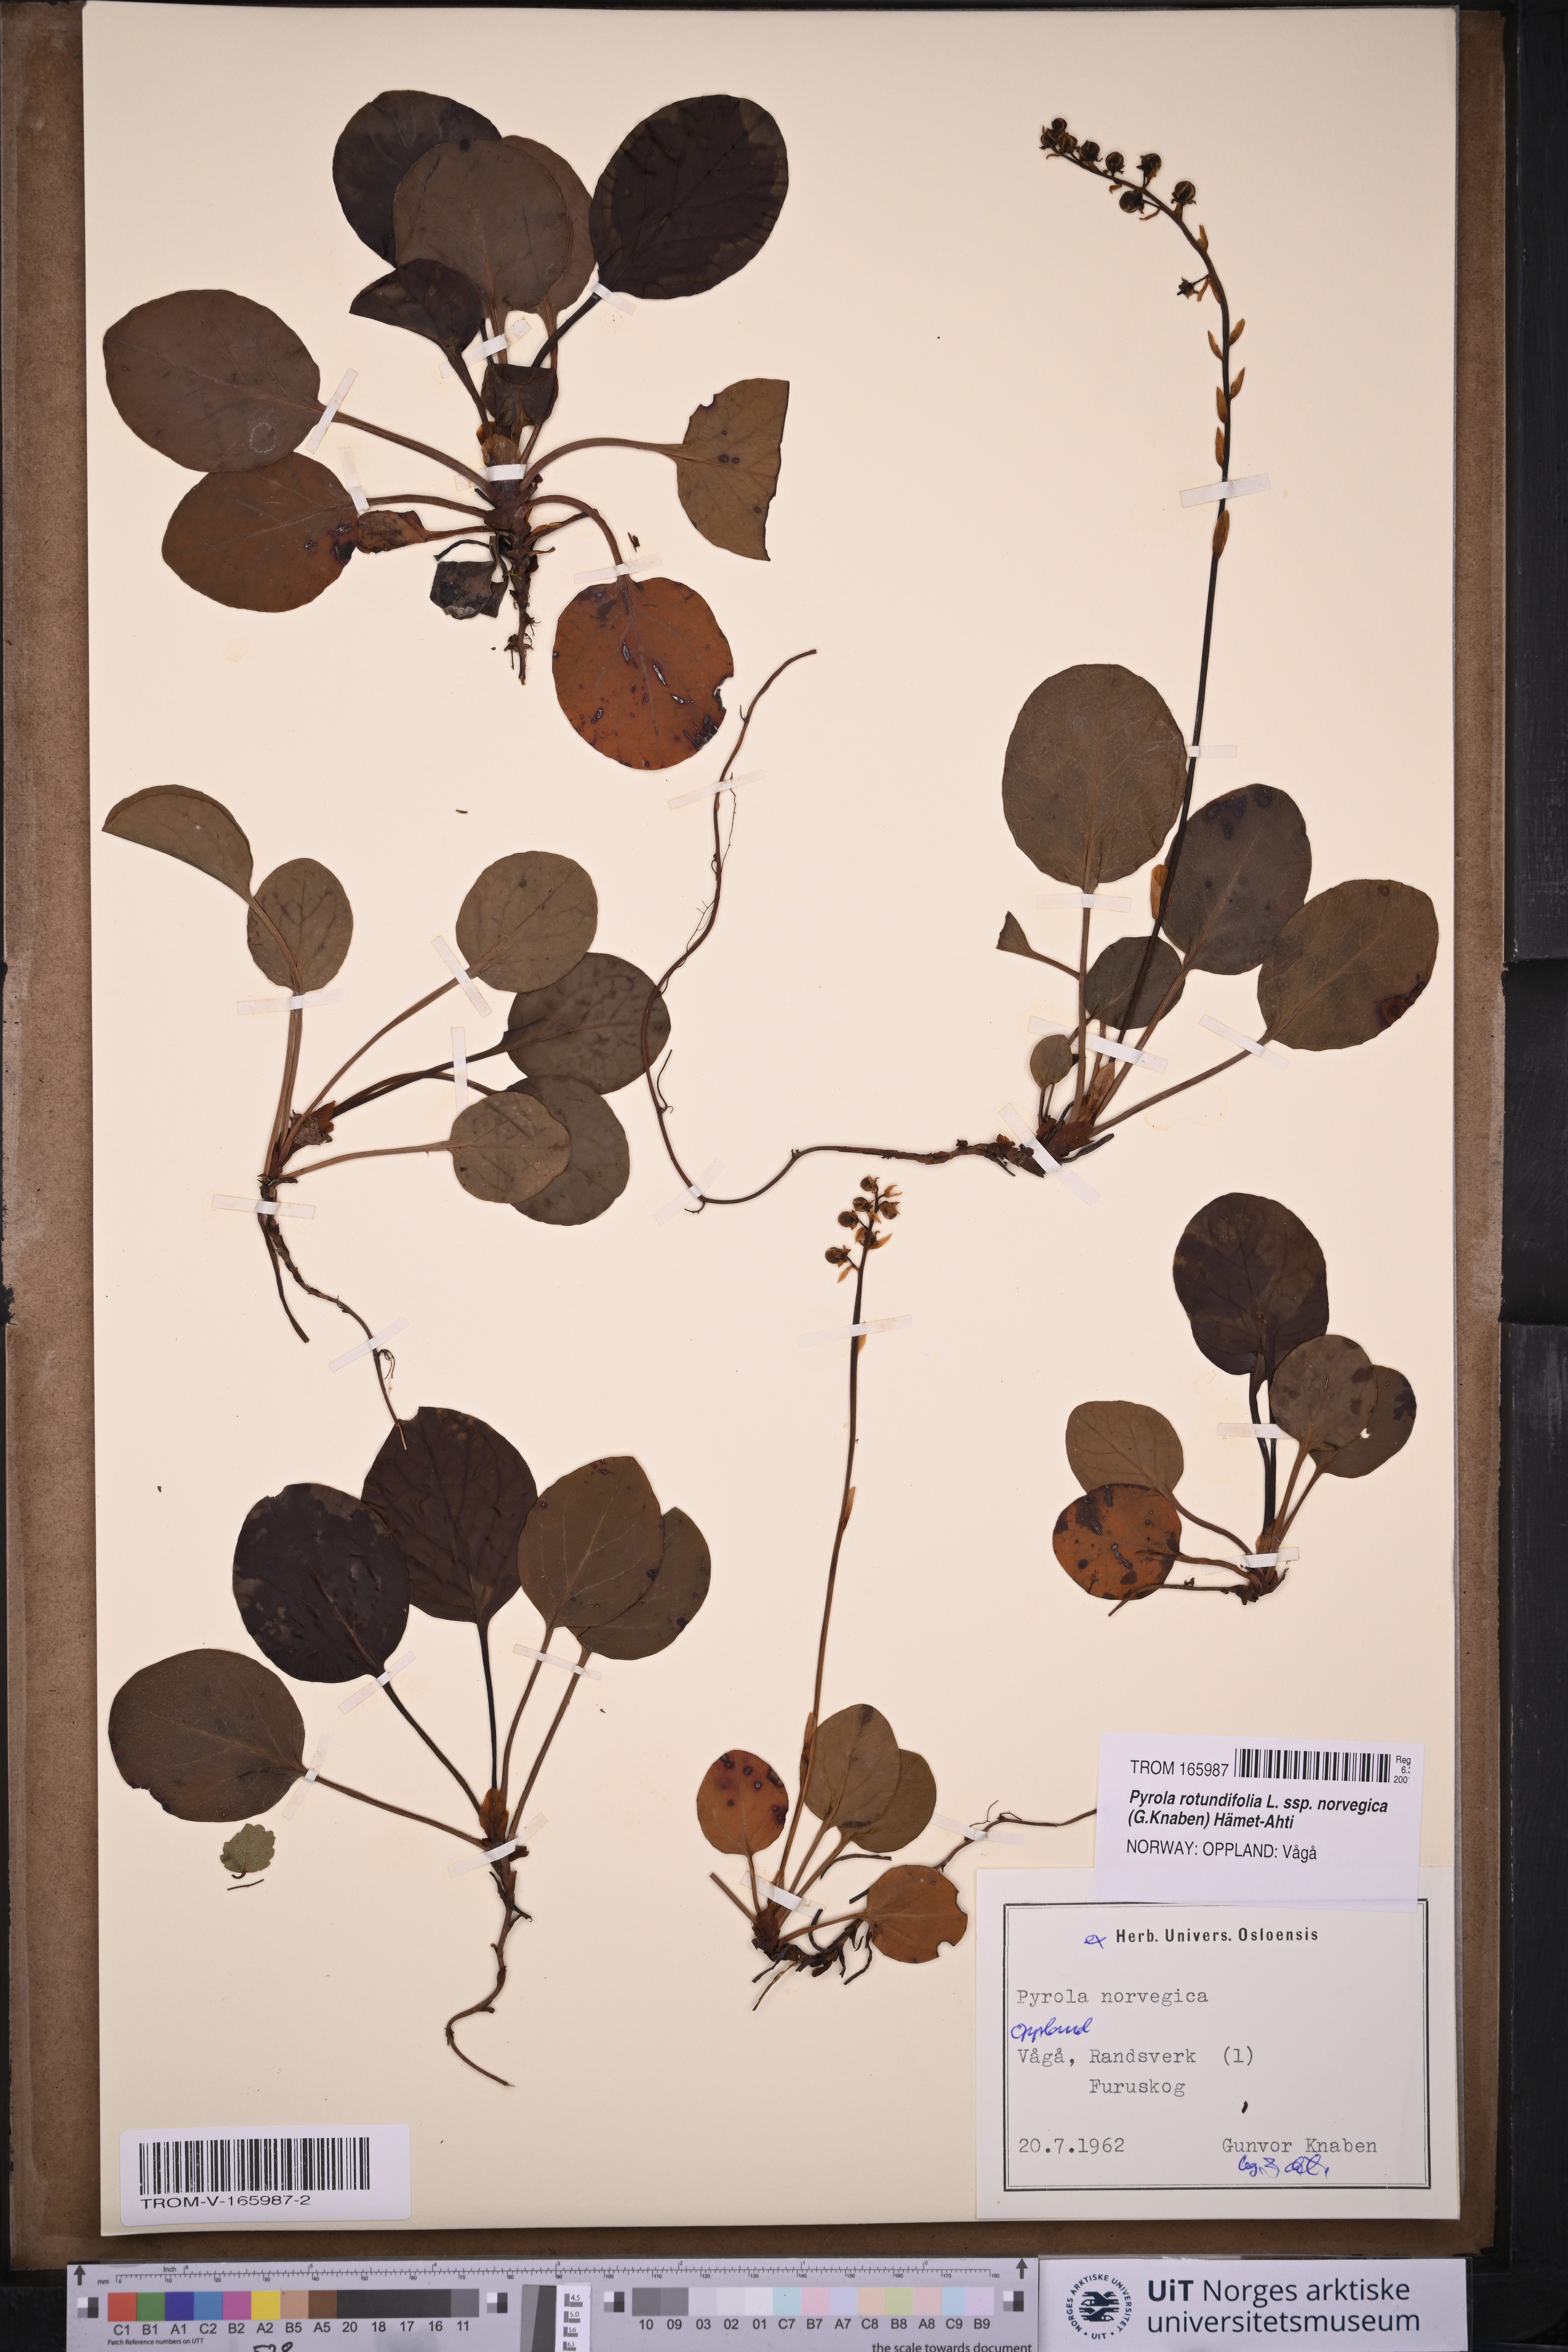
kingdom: Plantae
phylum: Tracheophyta
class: Magnoliopsida
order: Ericales
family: Ericaceae
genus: Pyrola
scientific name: Pyrola rotundifolia
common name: Round-leaved wintergreen
